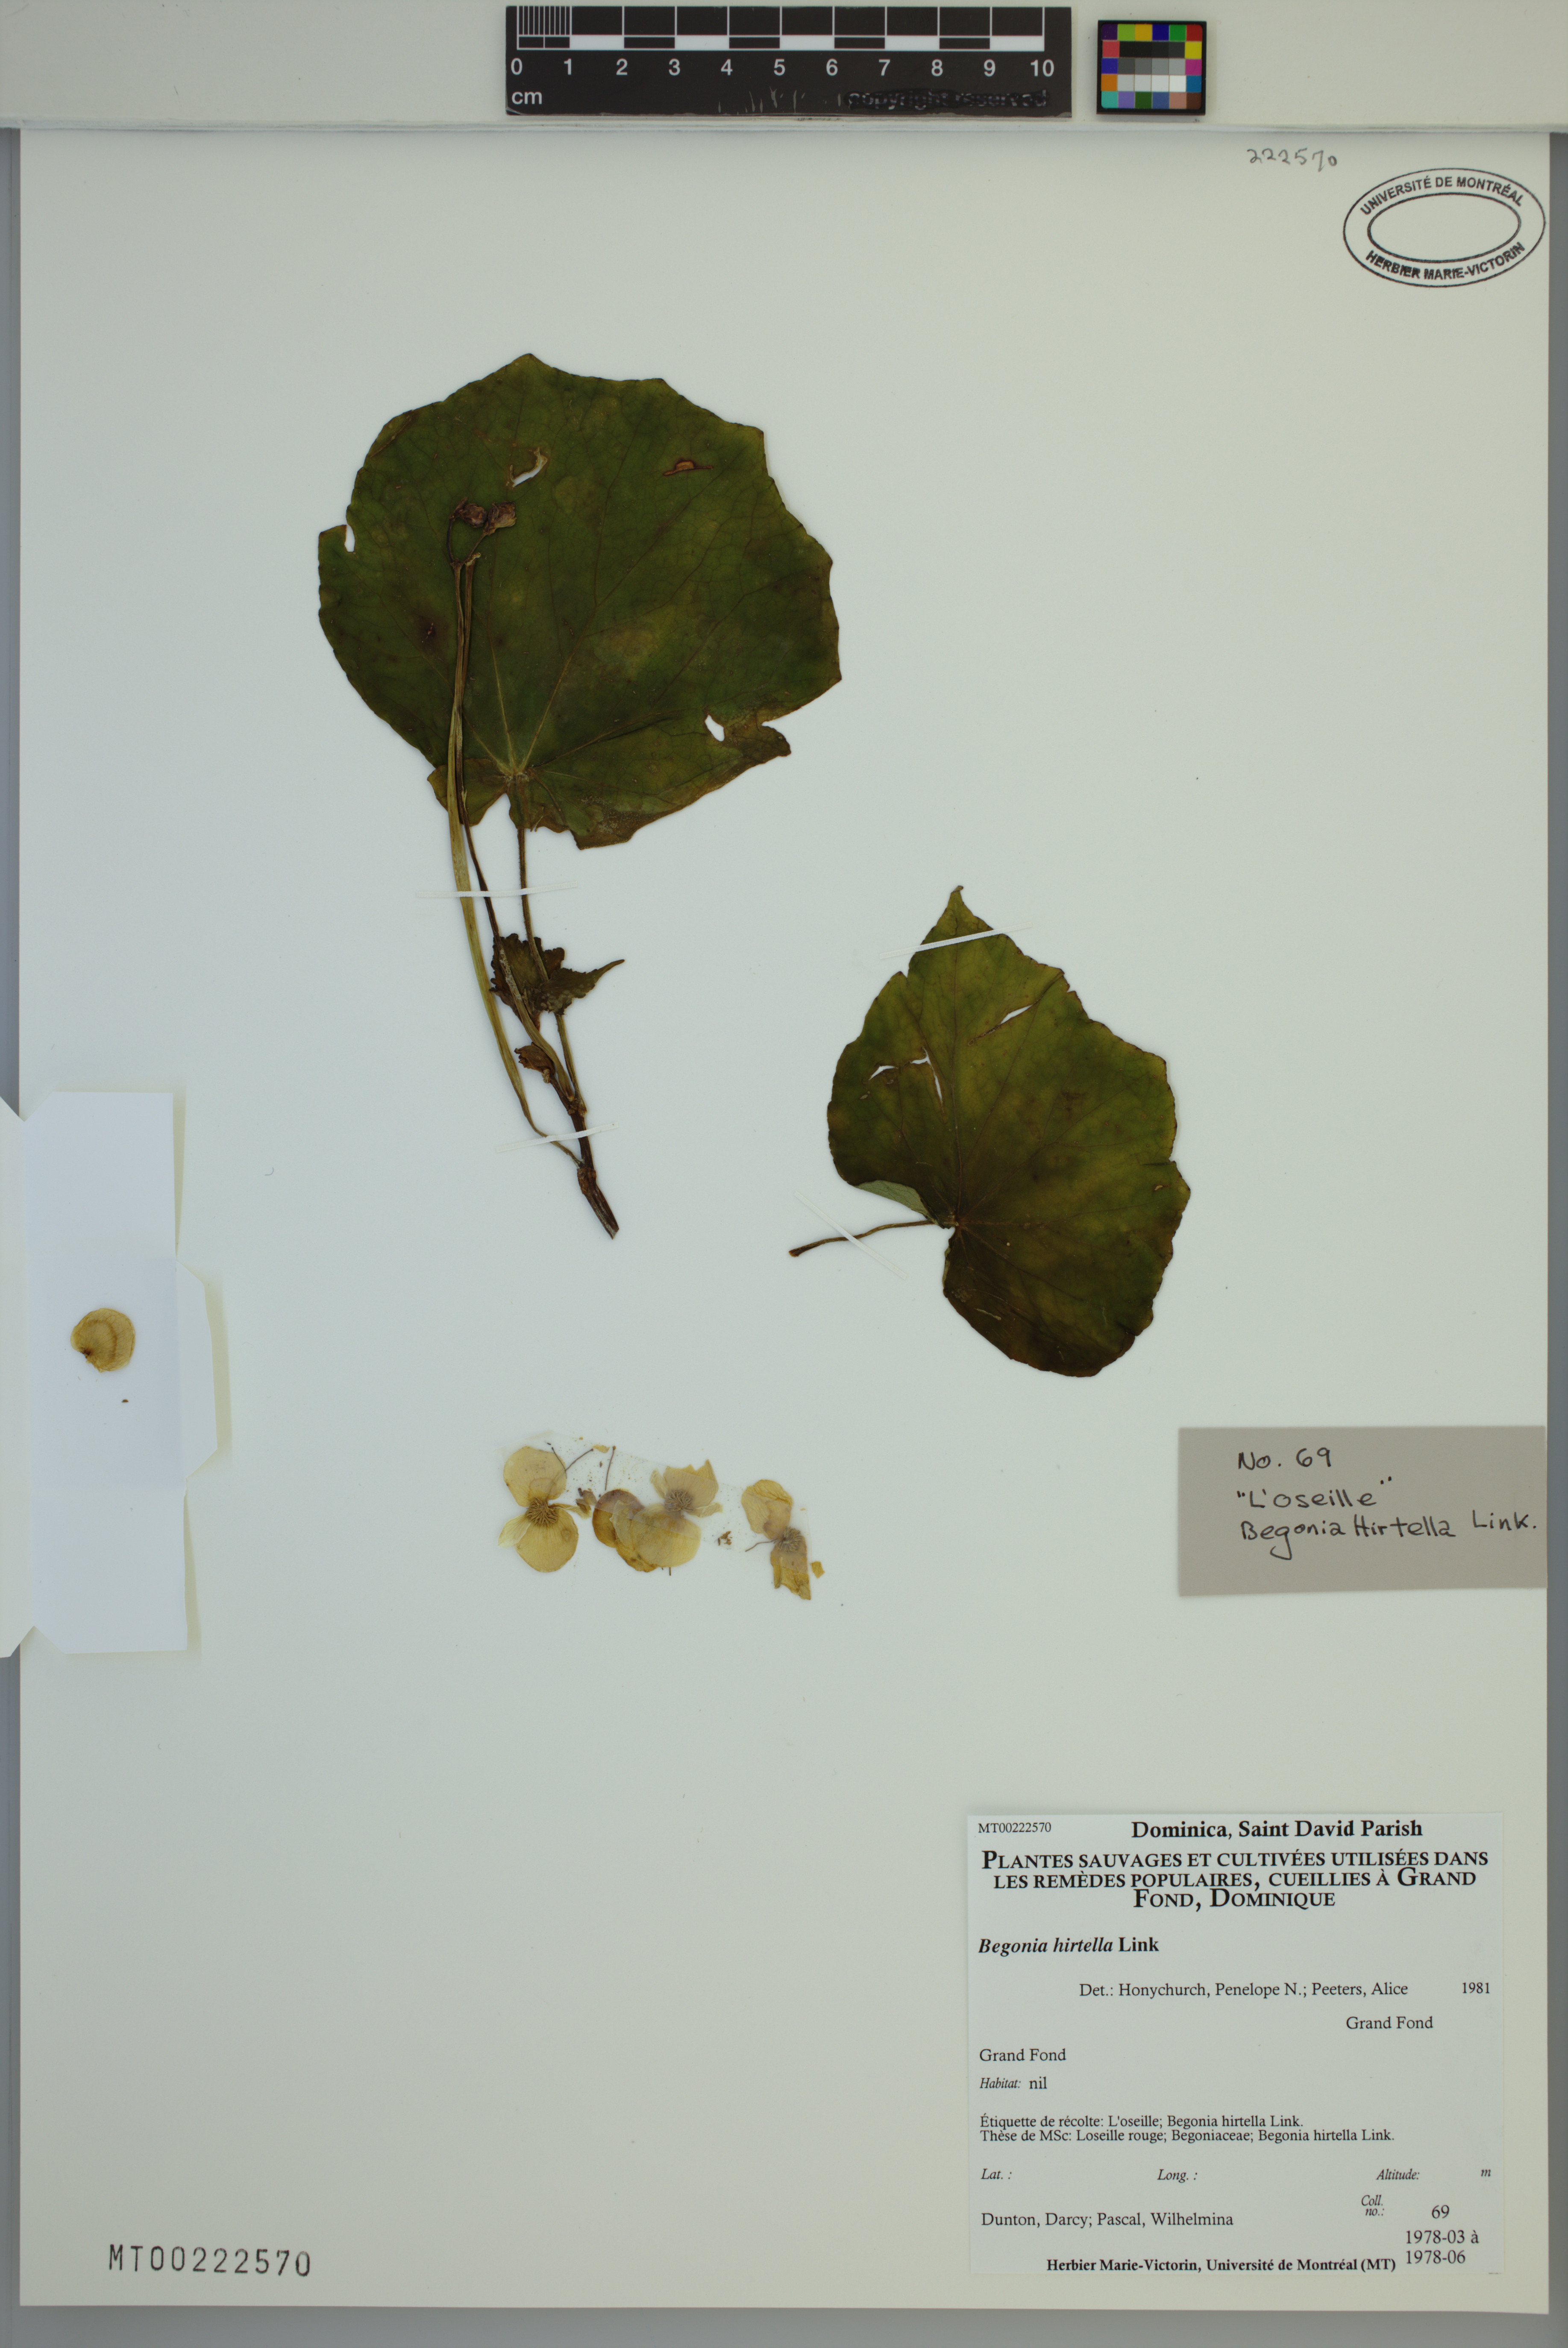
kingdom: Plantae
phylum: Tracheophyta
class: Magnoliopsida
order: Cucurbitales
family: Begoniaceae
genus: Begonia
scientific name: Begonia hirtella
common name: Brazilian begonia
